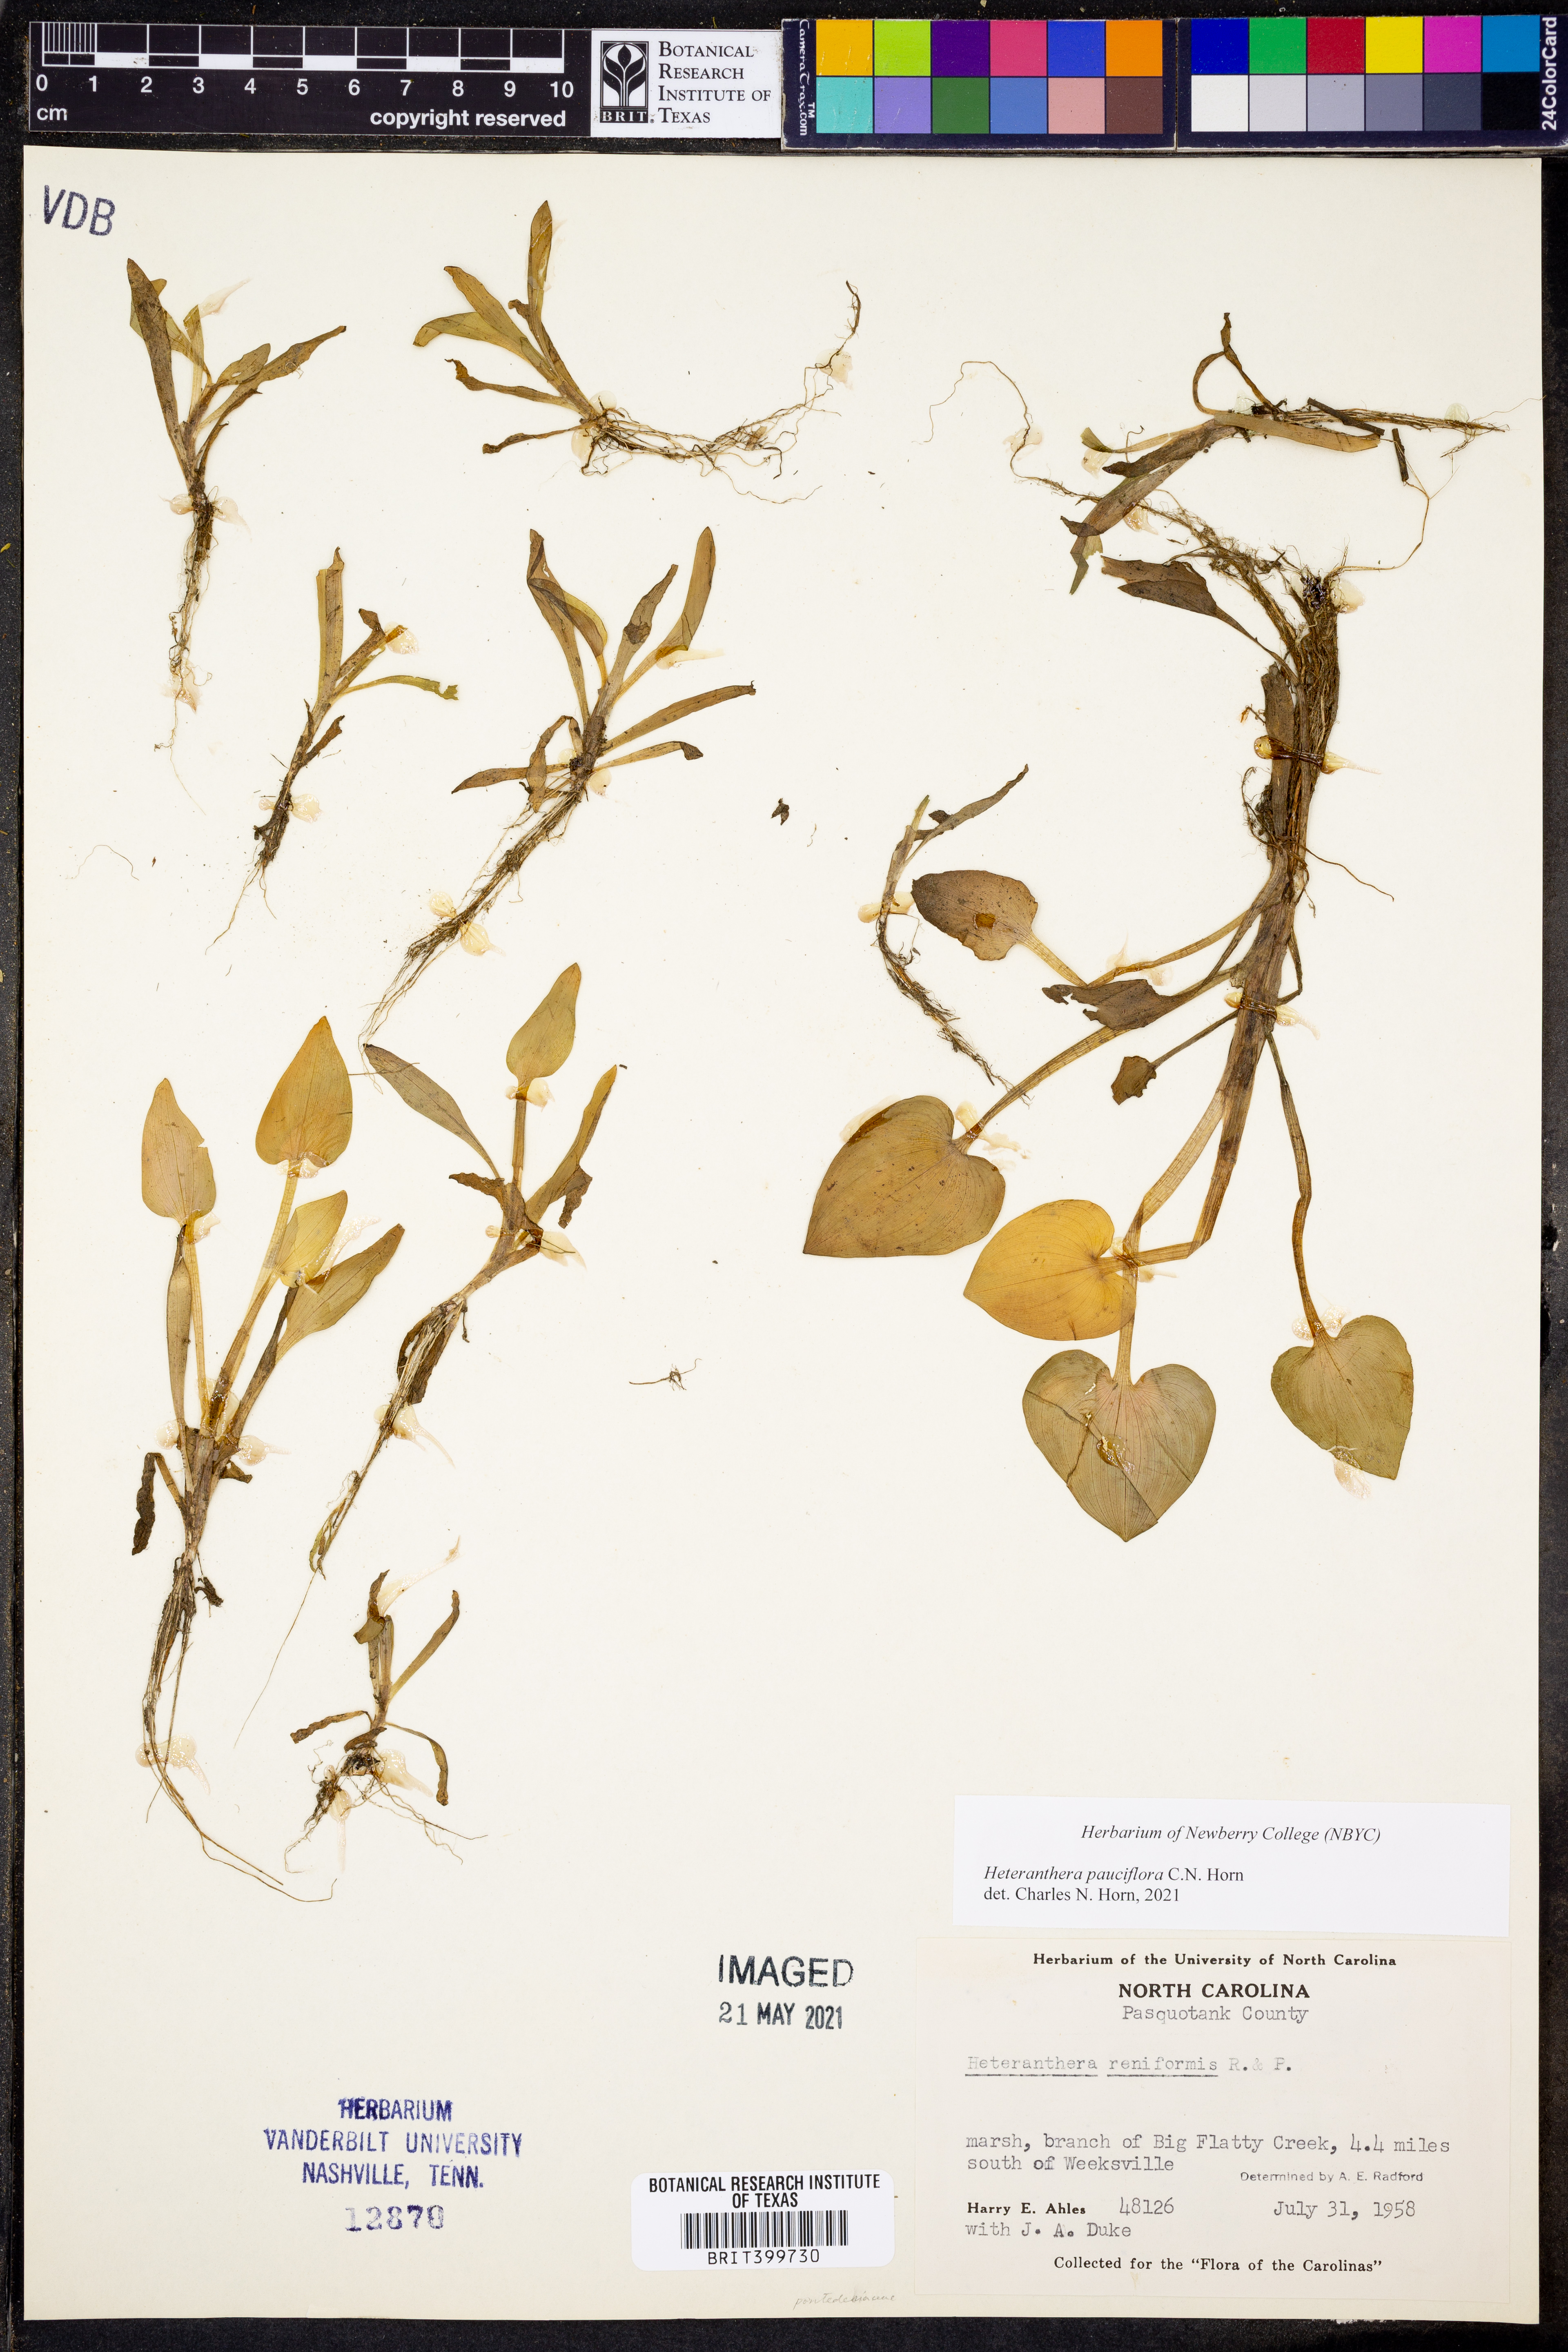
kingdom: Plantae
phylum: Tracheophyta
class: Liliopsida
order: Commelinales
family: Pontederiaceae
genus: Heteranthera
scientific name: Heteranthera pauciflora
